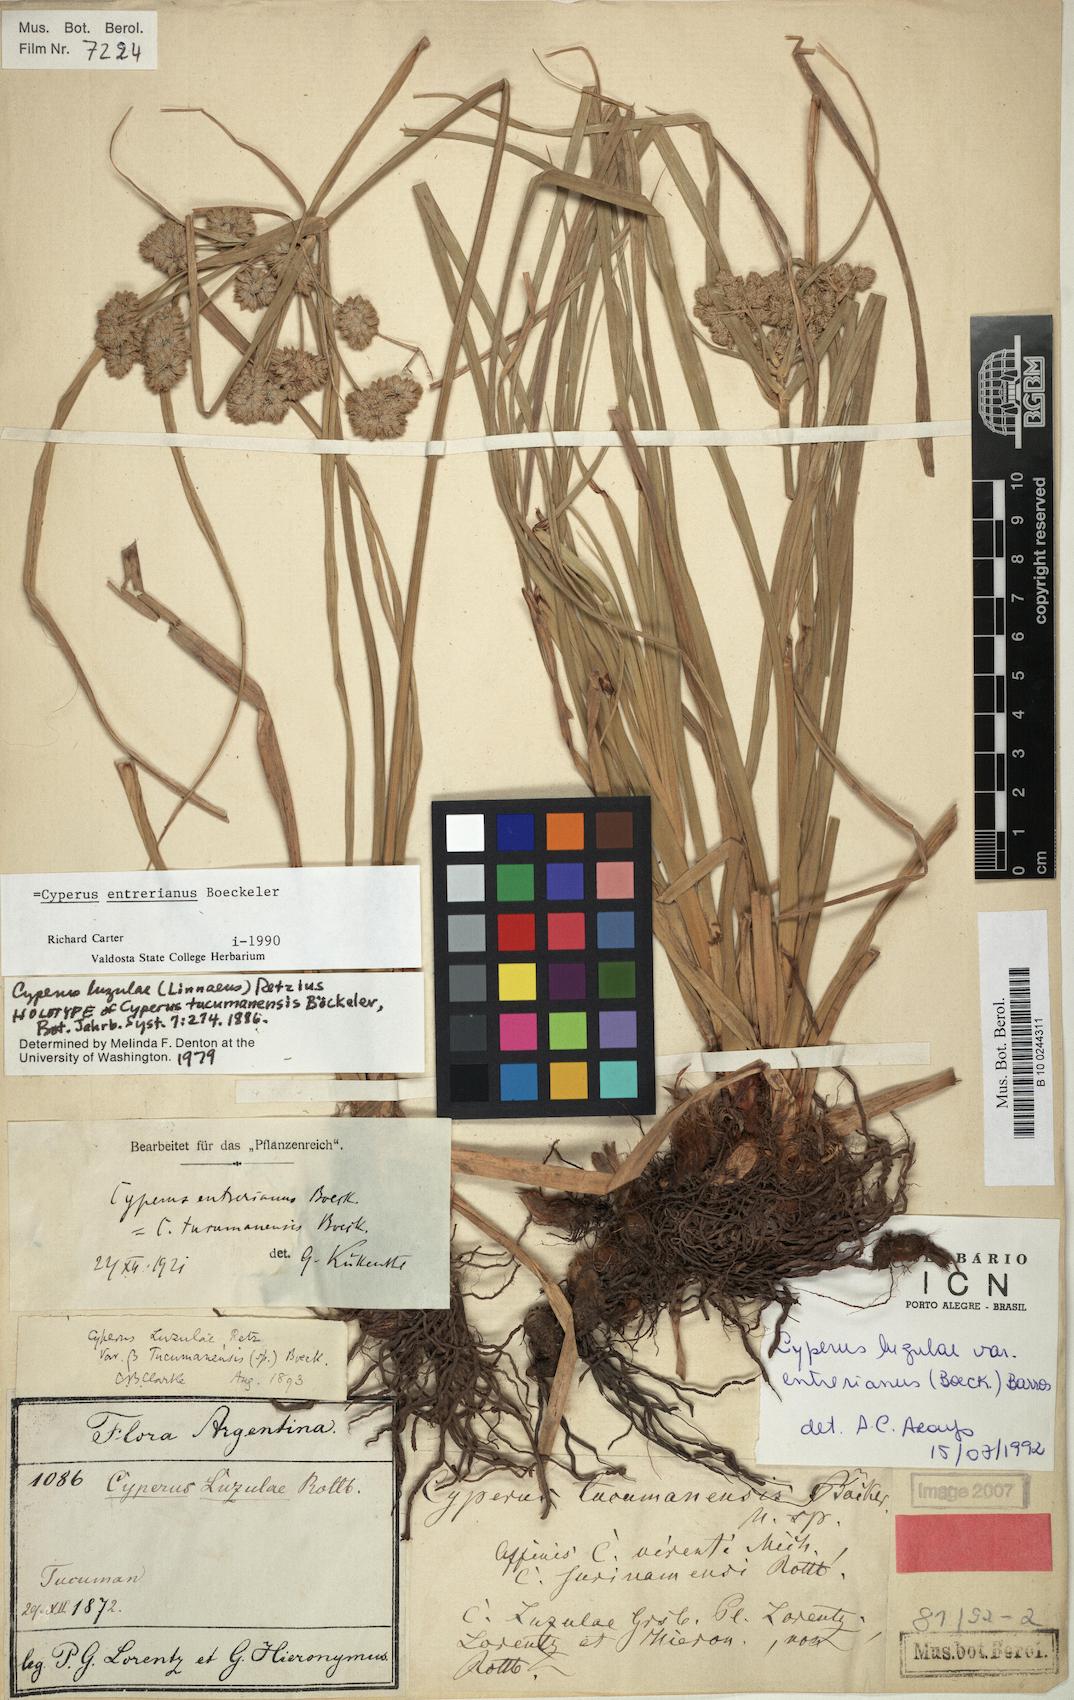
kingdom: Plantae
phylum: Tracheophyta
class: Liliopsida
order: Poales
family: Cyperaceae
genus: Cyperus
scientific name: Cyperus entrerianus
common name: Woodrush flatsedge
